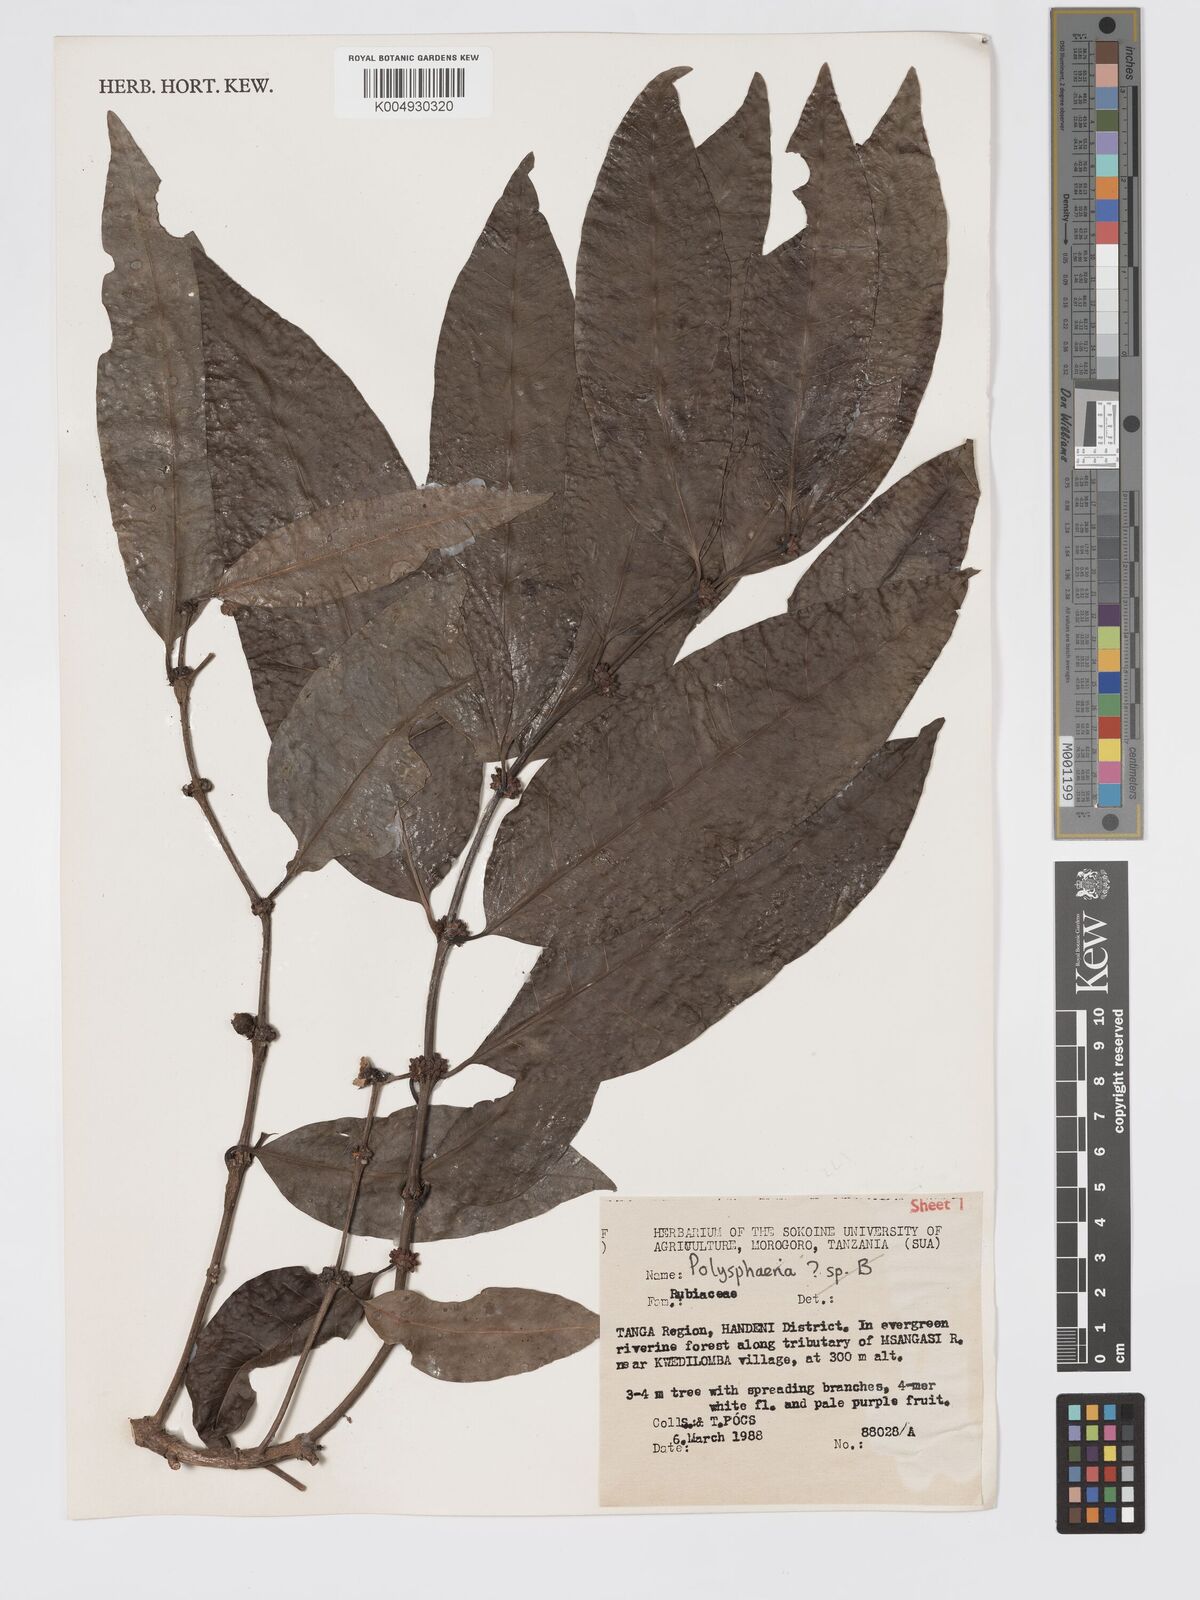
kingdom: Plantae
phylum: Tracheophyta
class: Magnoliopsida
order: Gentianales
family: Rubiaceae
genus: Polysphaeria
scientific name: Polysphaeria
